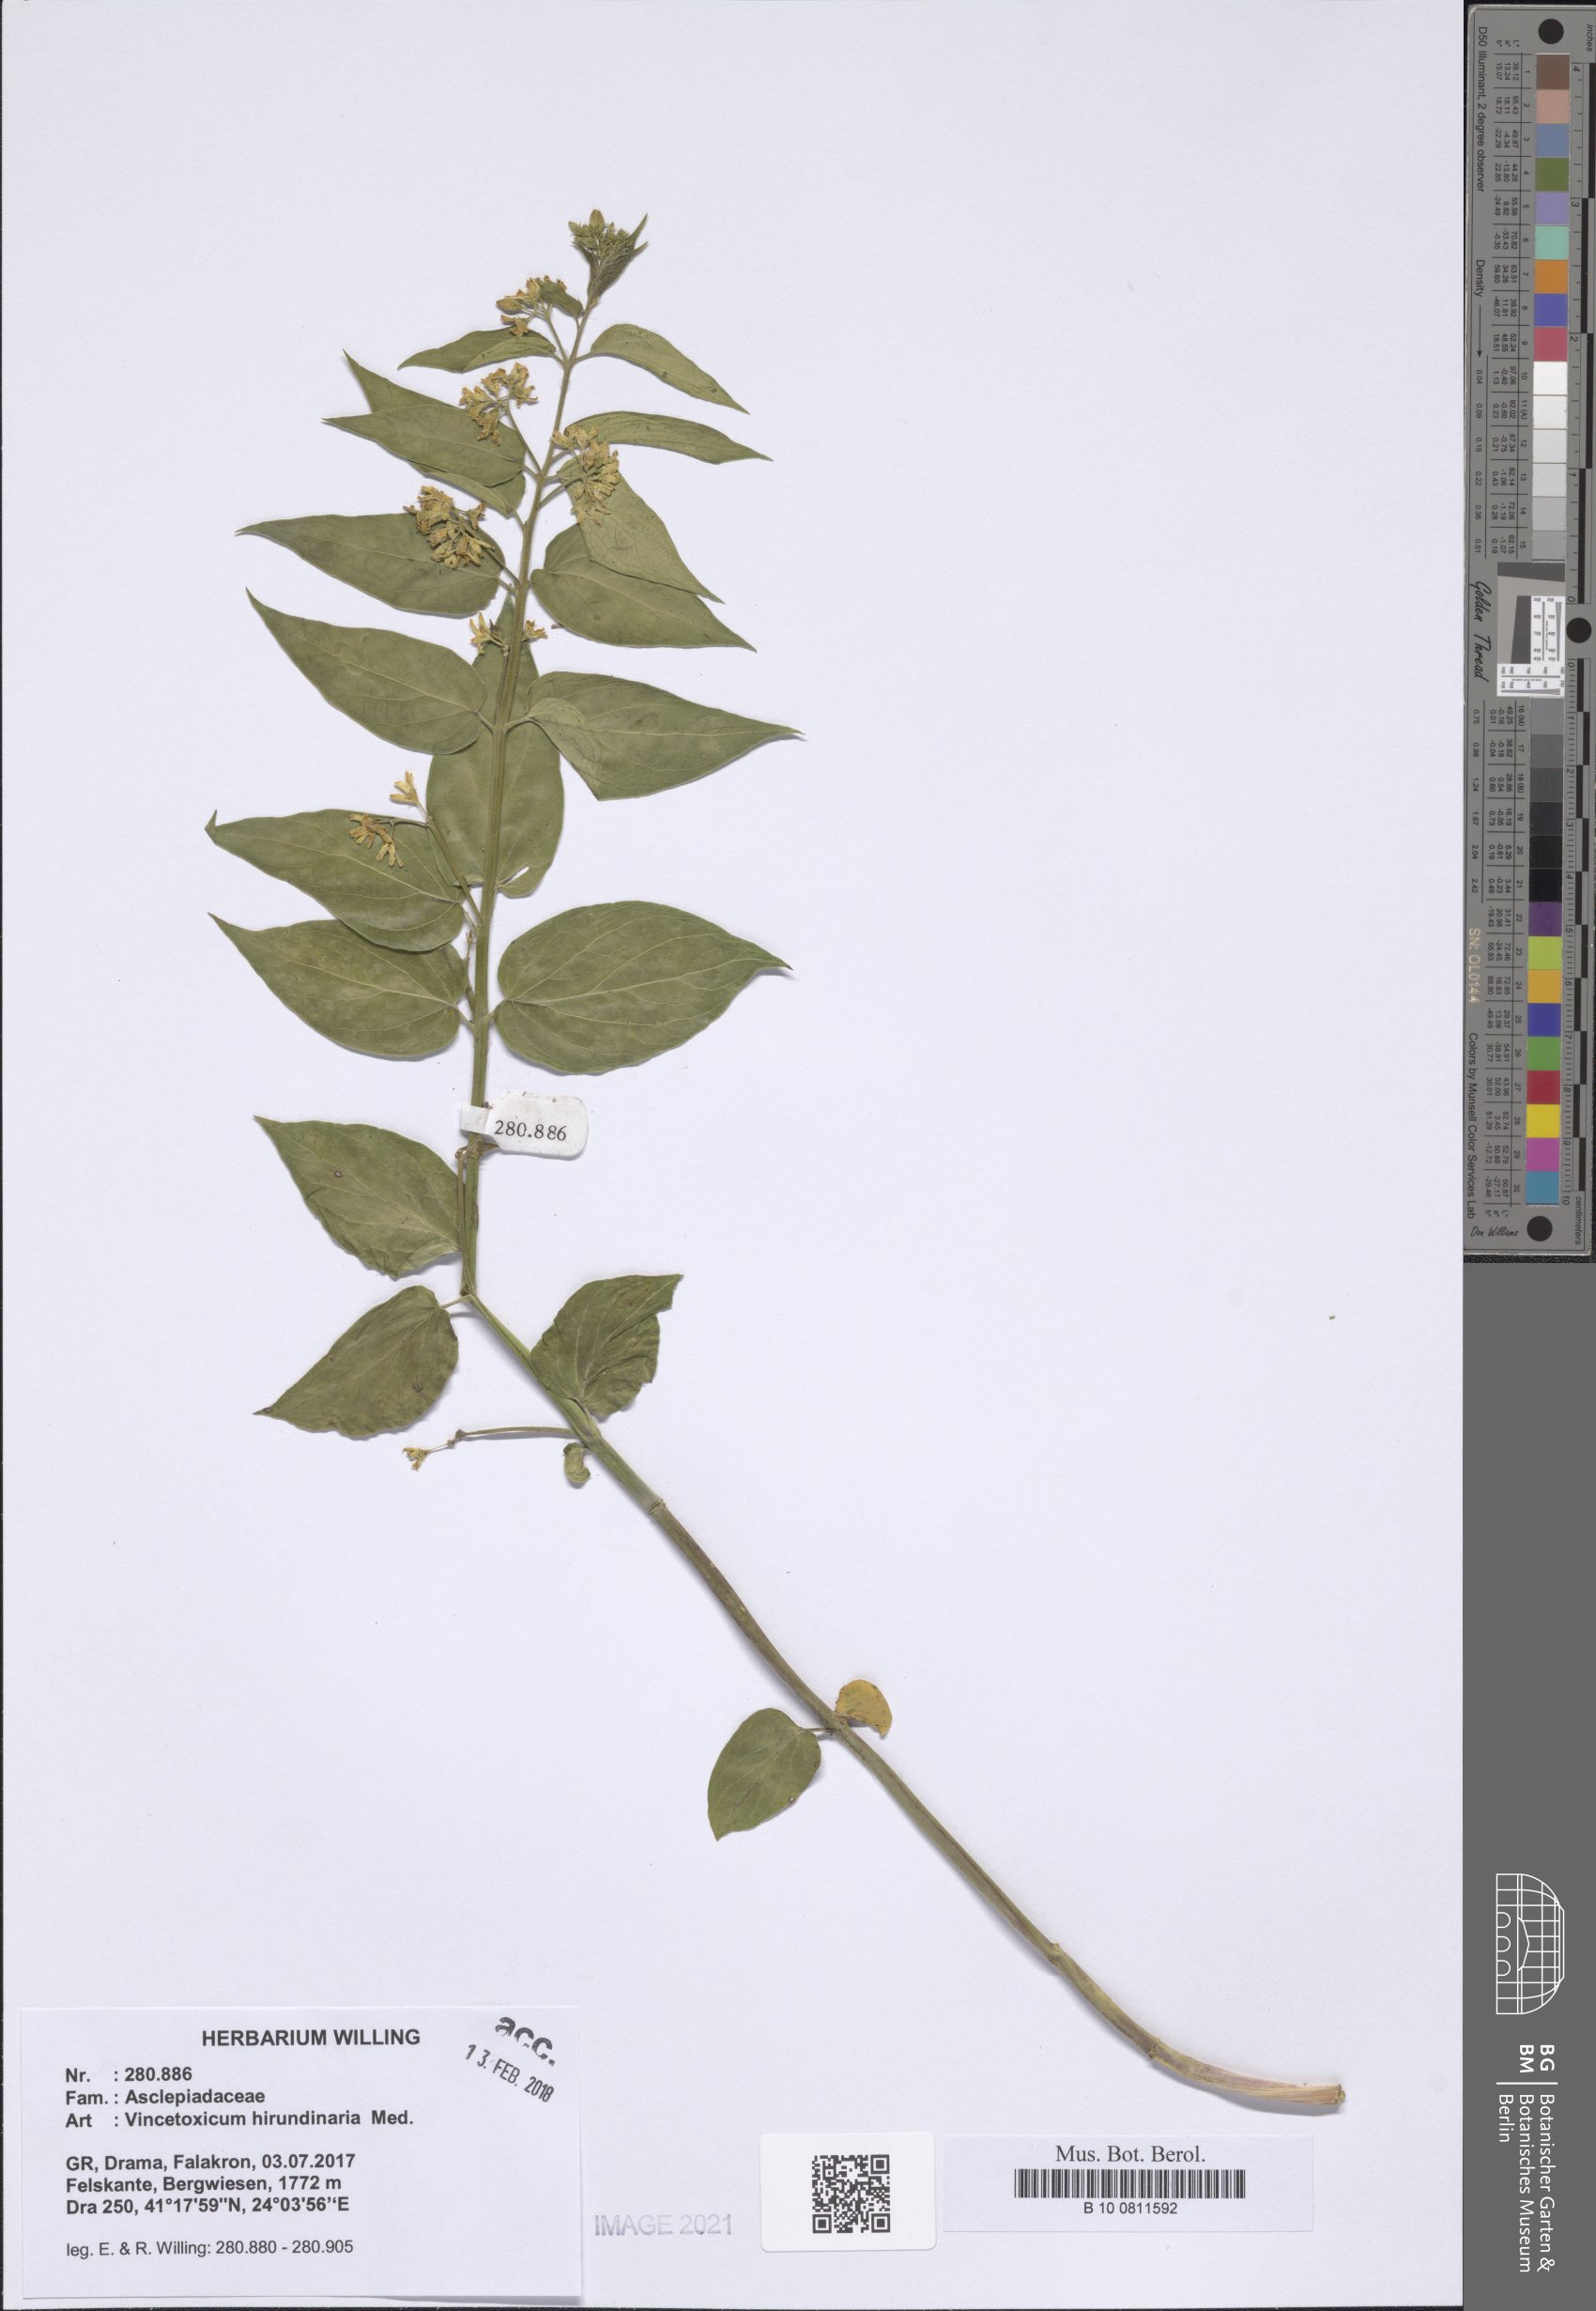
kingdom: Plantae
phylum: Tracheophyta
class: Magnoliopsida
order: Gentianales
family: Apocynaceae
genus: Vincetoxicum
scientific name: Vincetoxicum hirundinaria
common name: White swallowwort
